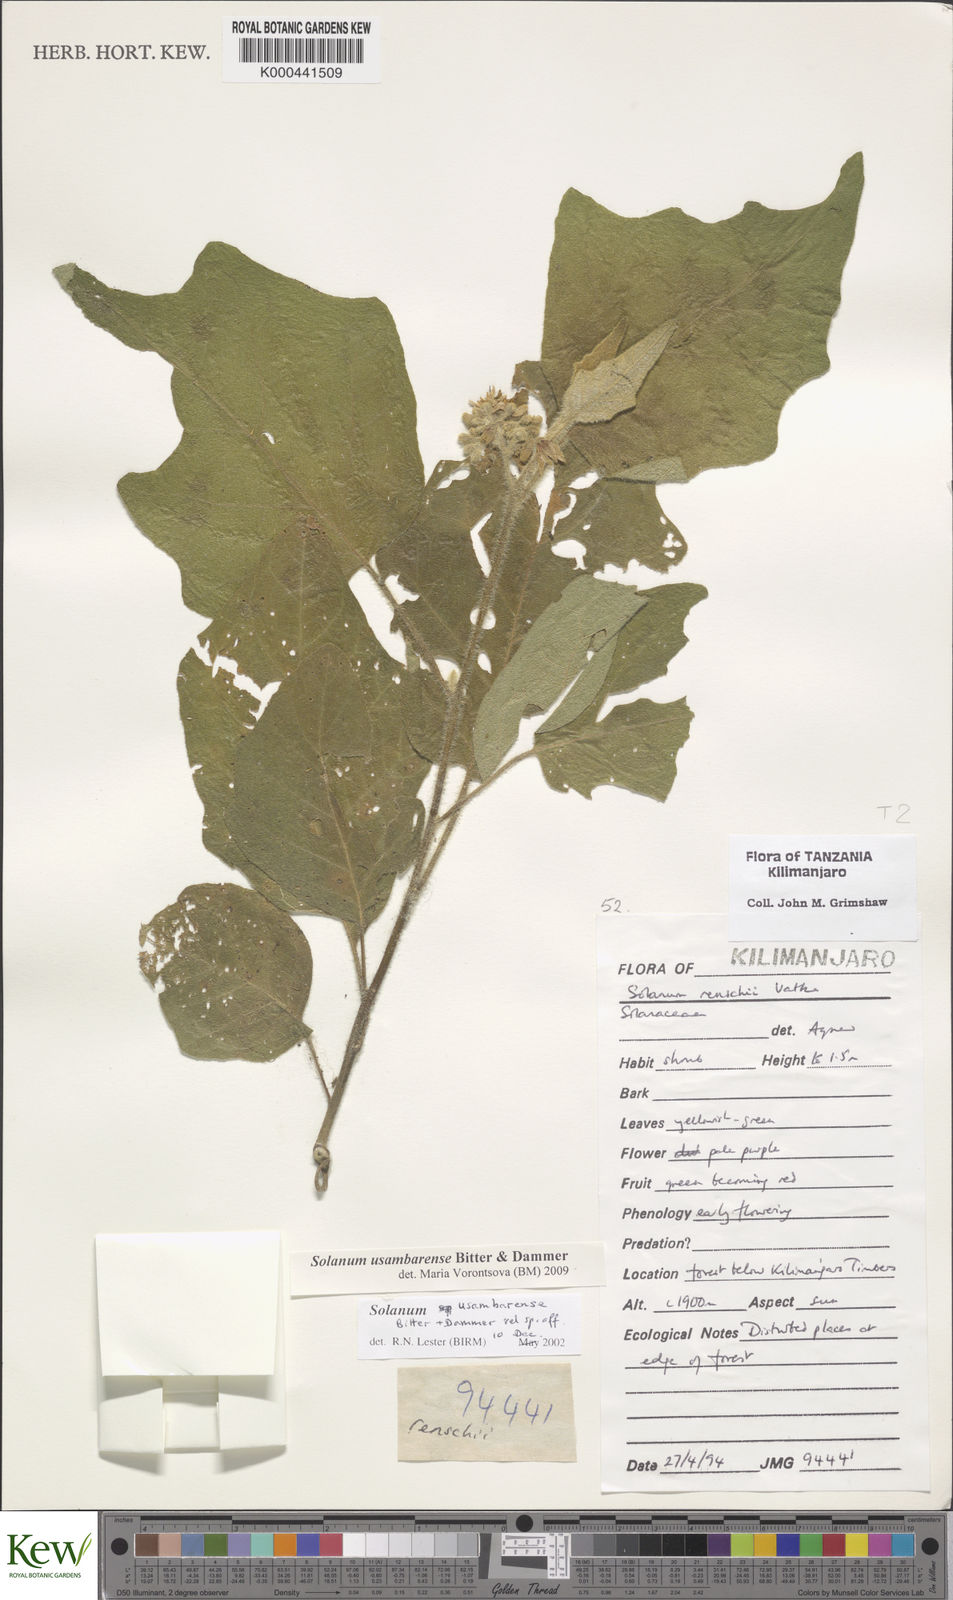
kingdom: Plantae
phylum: Tracheophyta
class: Magnoliopsida
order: Solanales
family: Solanaceae
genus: Solanum
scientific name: Solanum usambarense
